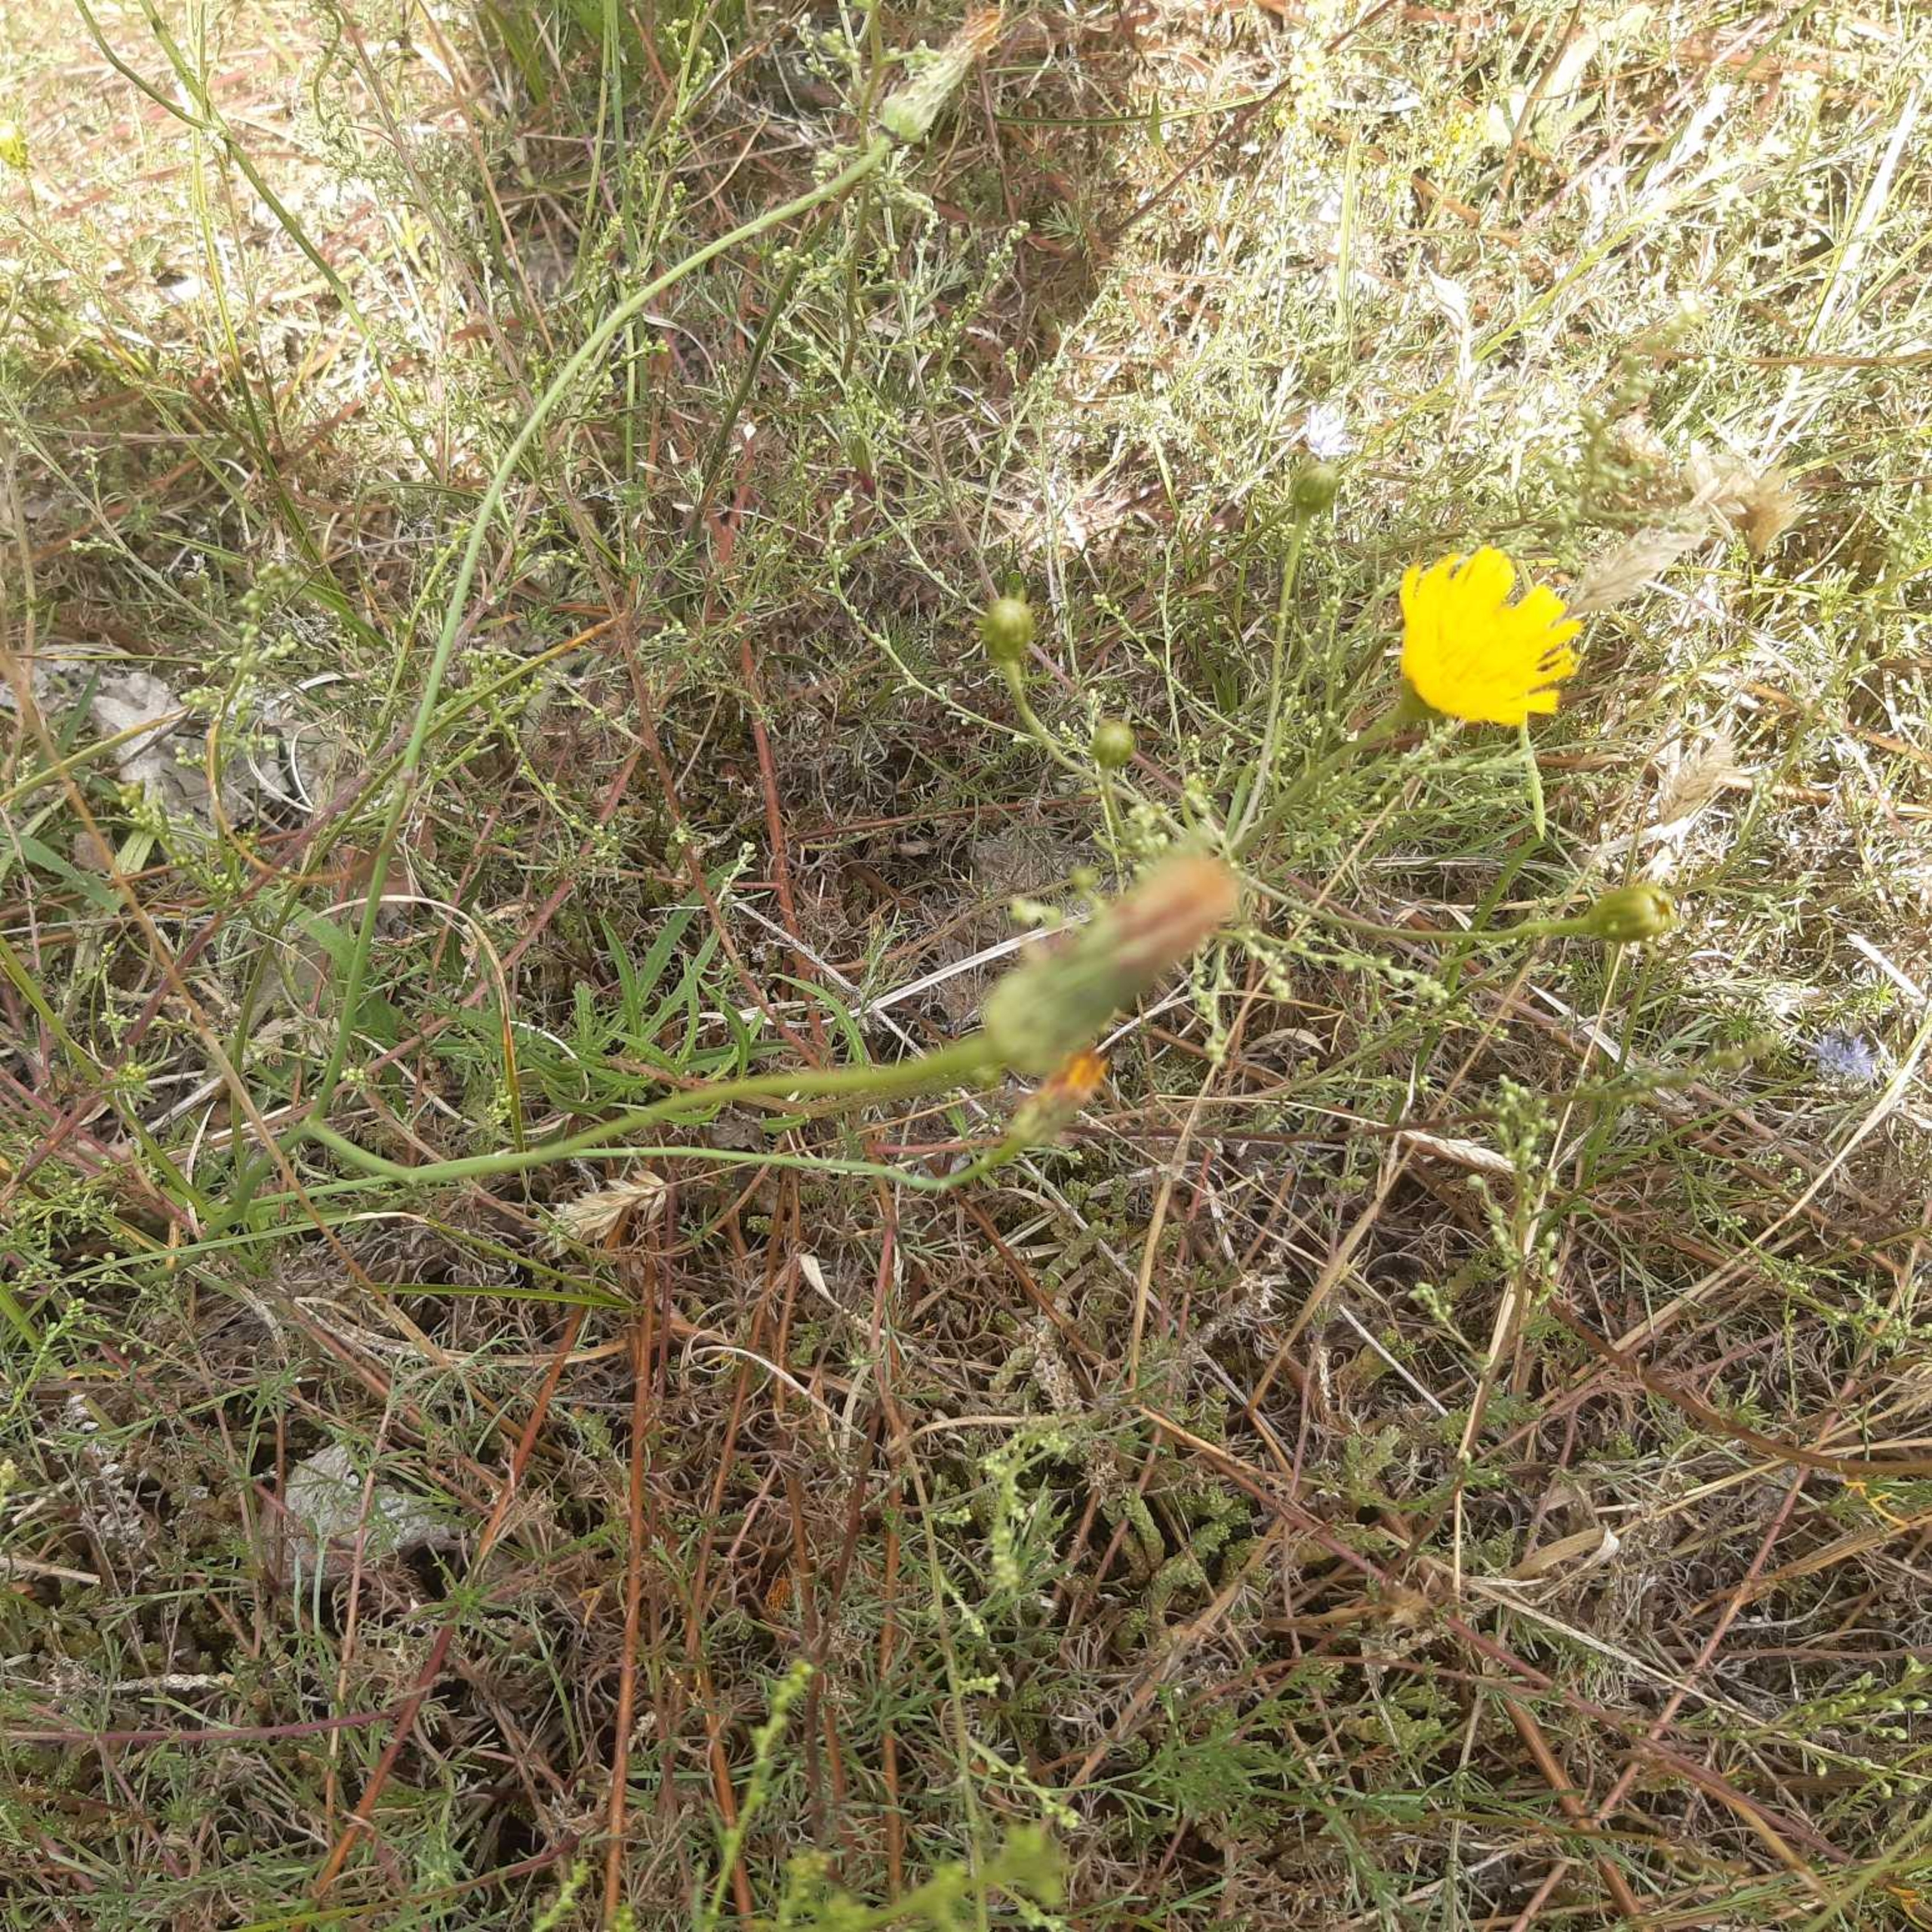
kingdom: Plantae
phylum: Tracheophyta
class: Magnoliopsida
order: Asterales
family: Asteraceae
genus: Hieracium
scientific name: Hieracium umbellatum
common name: Smalbladet høgeurt
